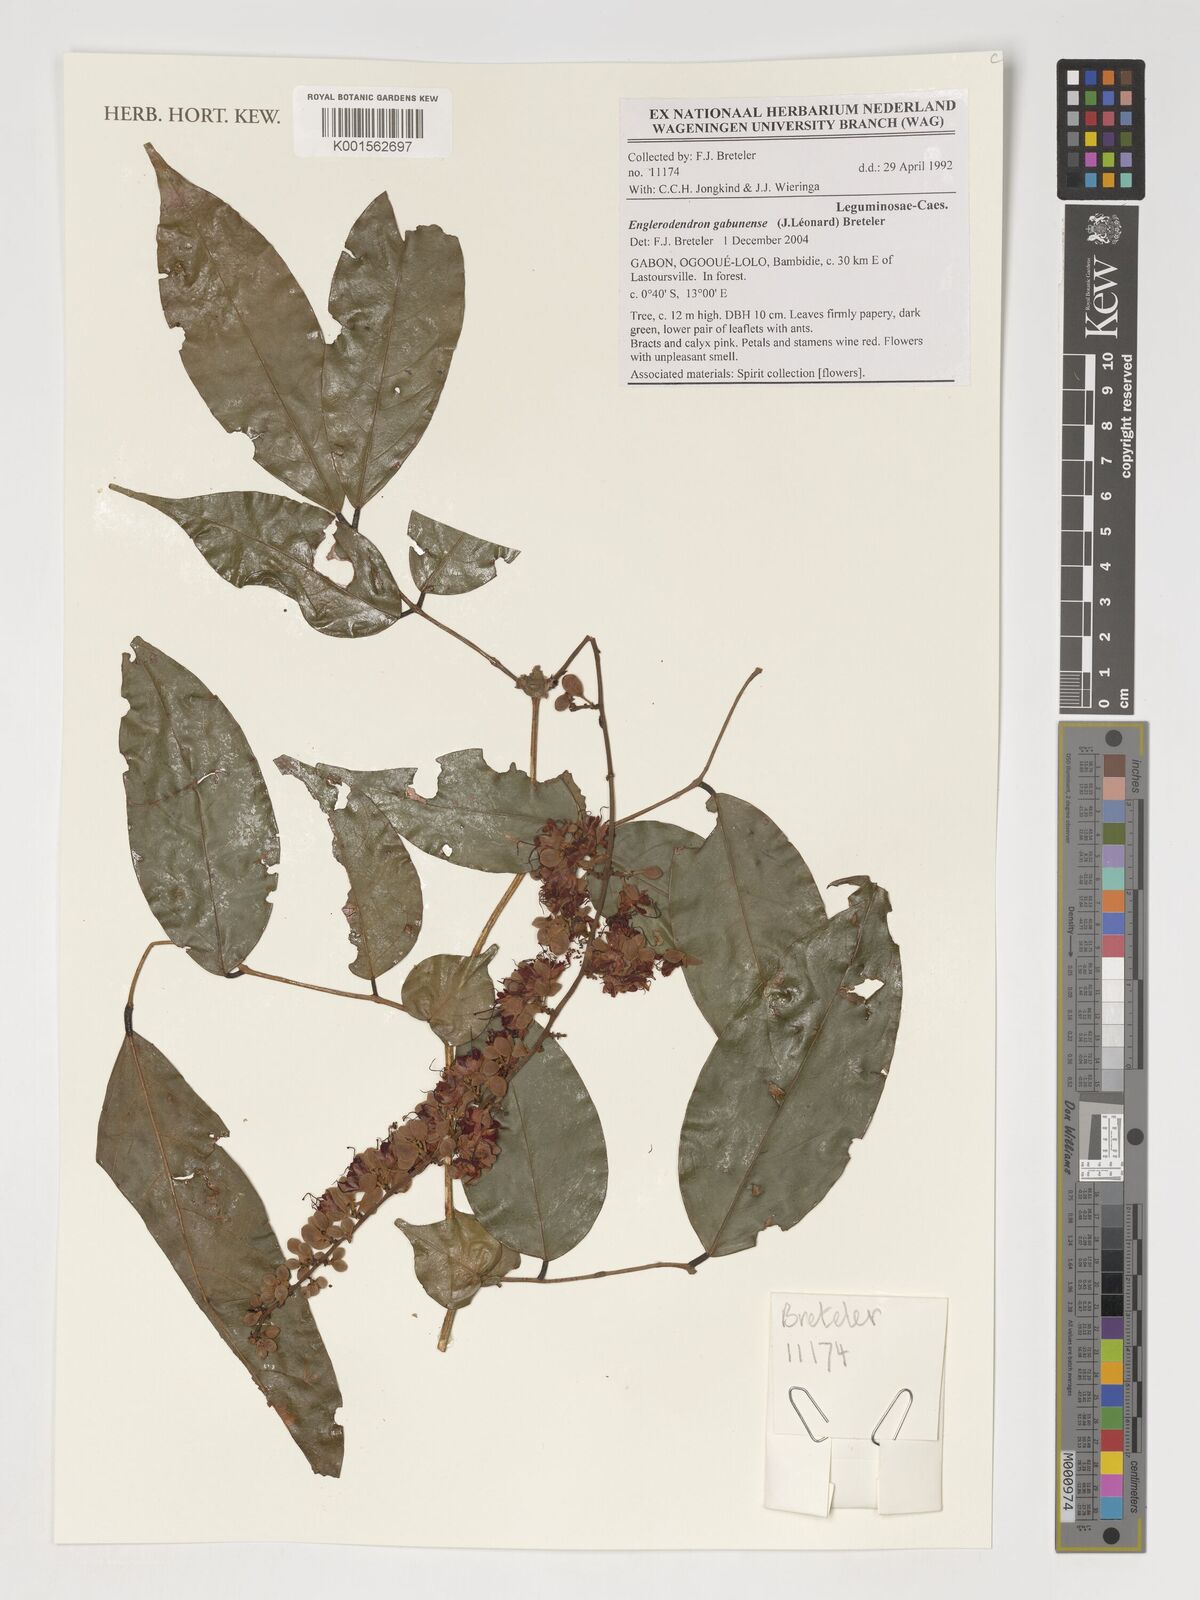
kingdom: Plantae
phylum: Tracheophyta
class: Magnoliopsida
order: Fabales
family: Fabaceae
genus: Englerodendron
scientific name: Englerodendron gabunense
